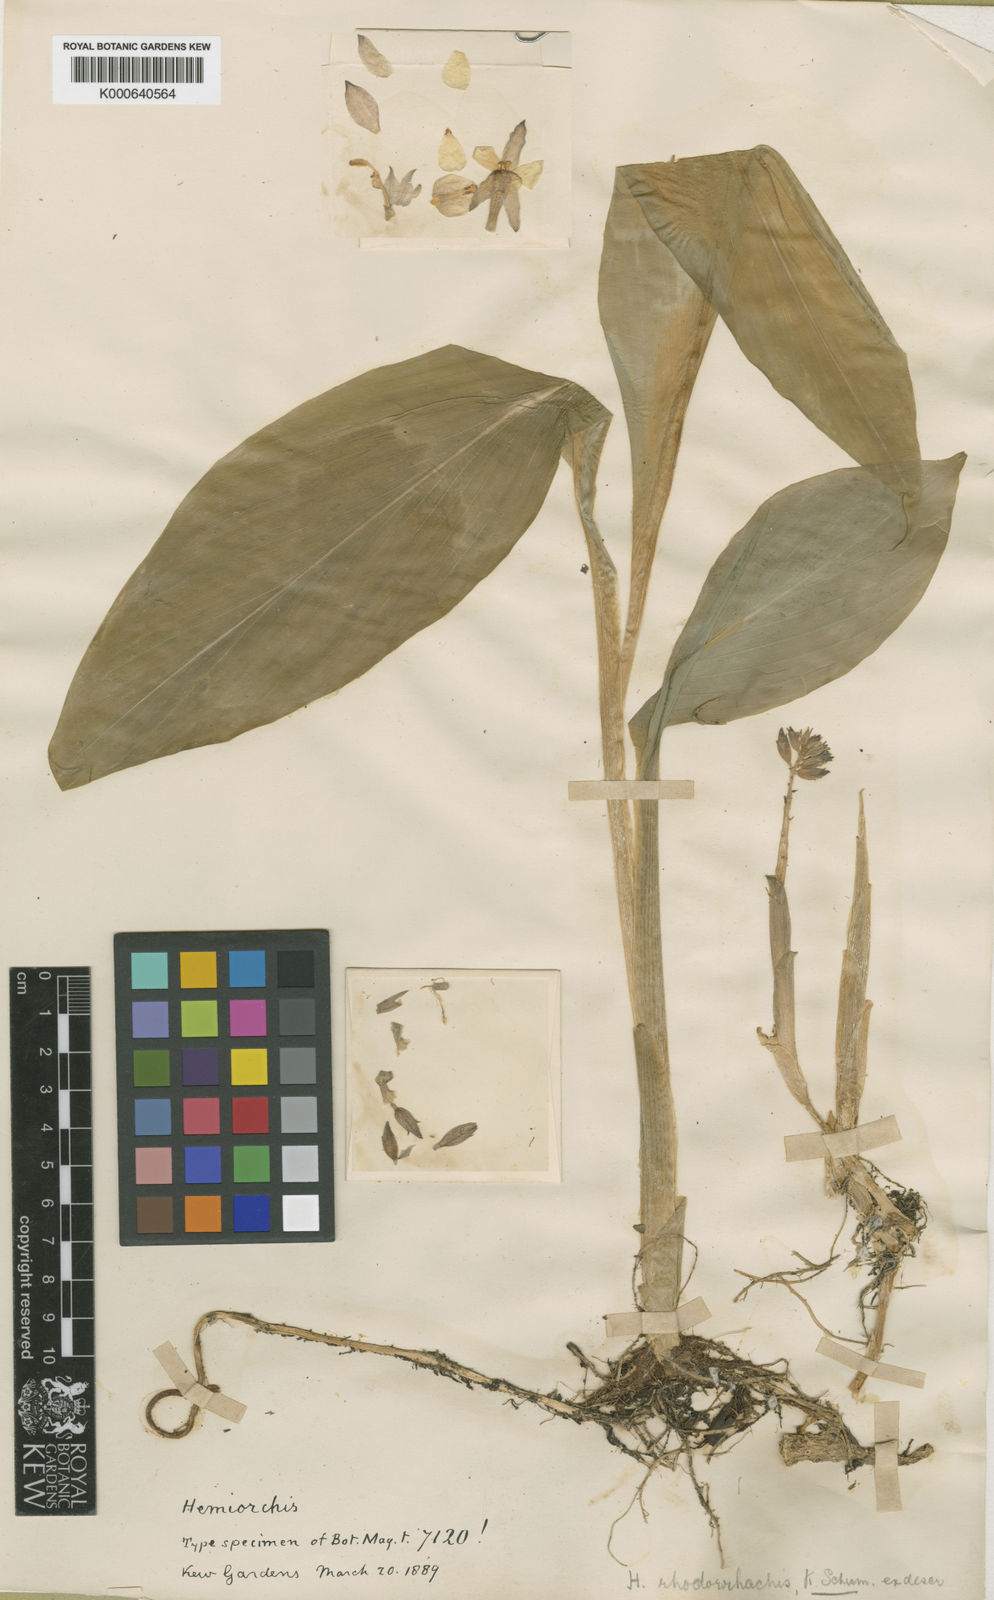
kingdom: Plantae
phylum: Tracheophyta
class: Liliopsida
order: Zingiberales
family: Zingiberaceae
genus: Hemiorchis
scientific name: Hemiorchis rhodorrhachis
